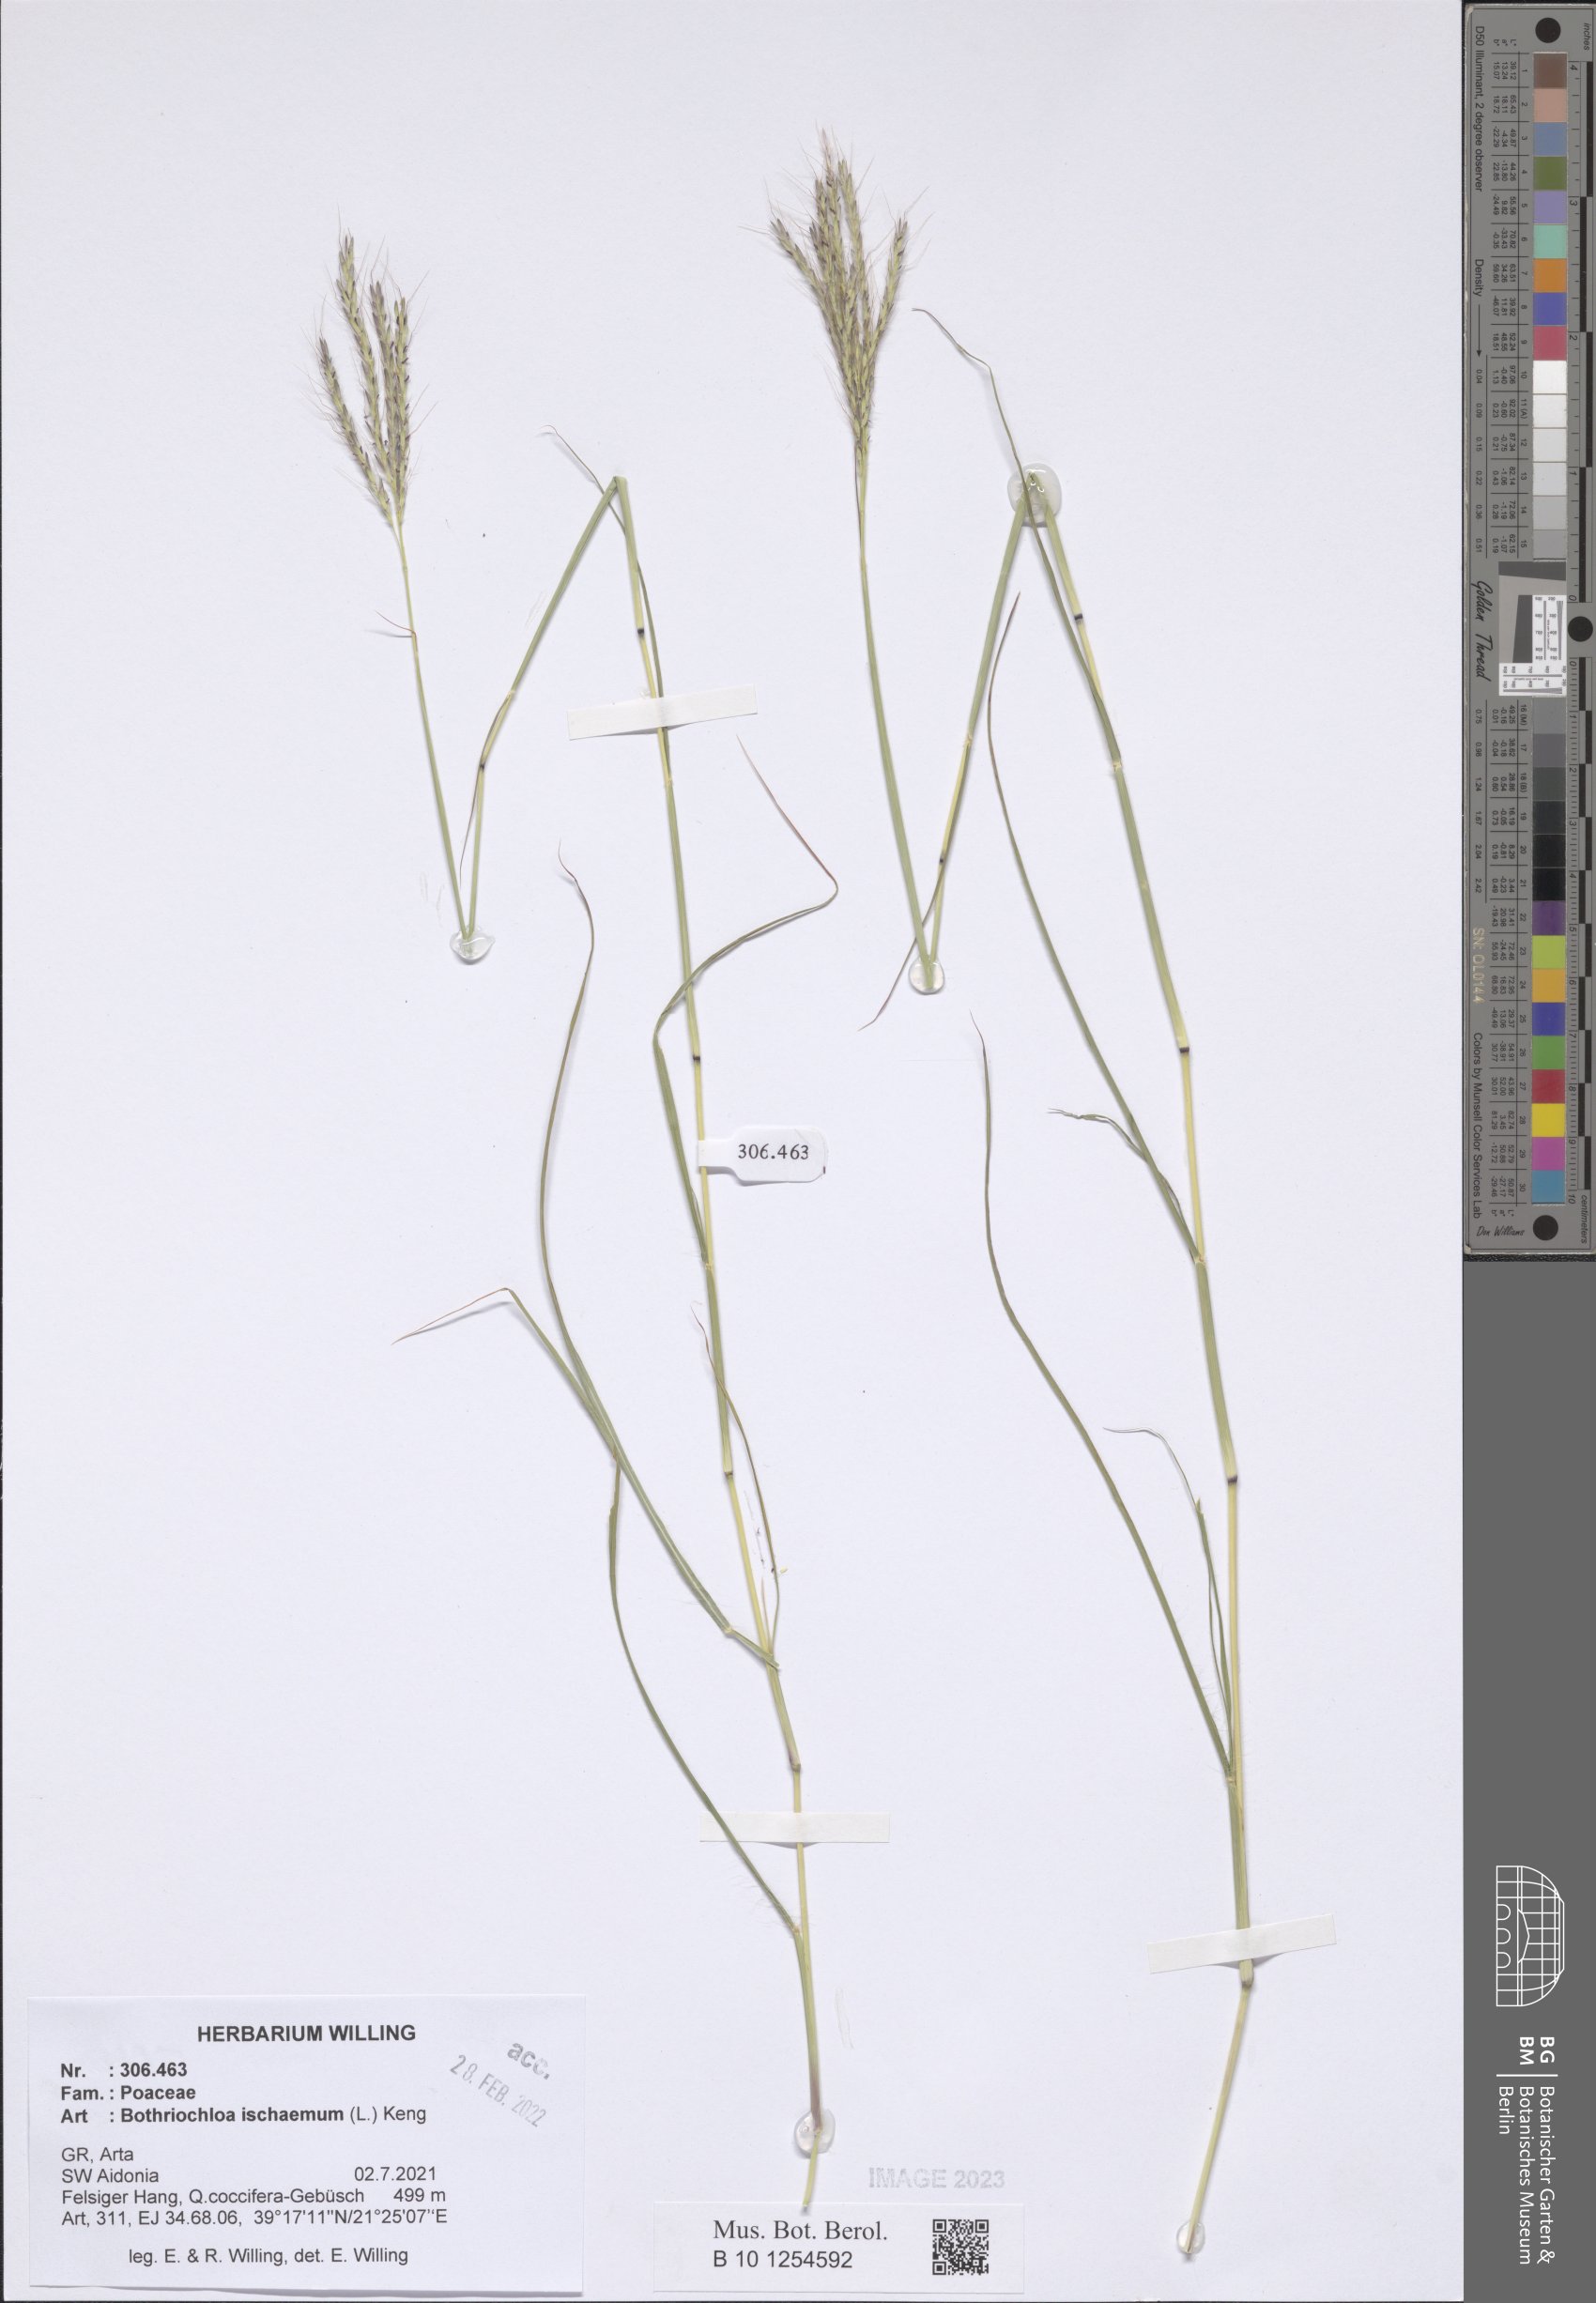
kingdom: Plantae
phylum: Tracheophyta
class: Liliopsida
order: Poales
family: Poaceae
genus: Bothriochloa
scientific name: Bothriochloa ischaemum
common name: Yellow bluestem
